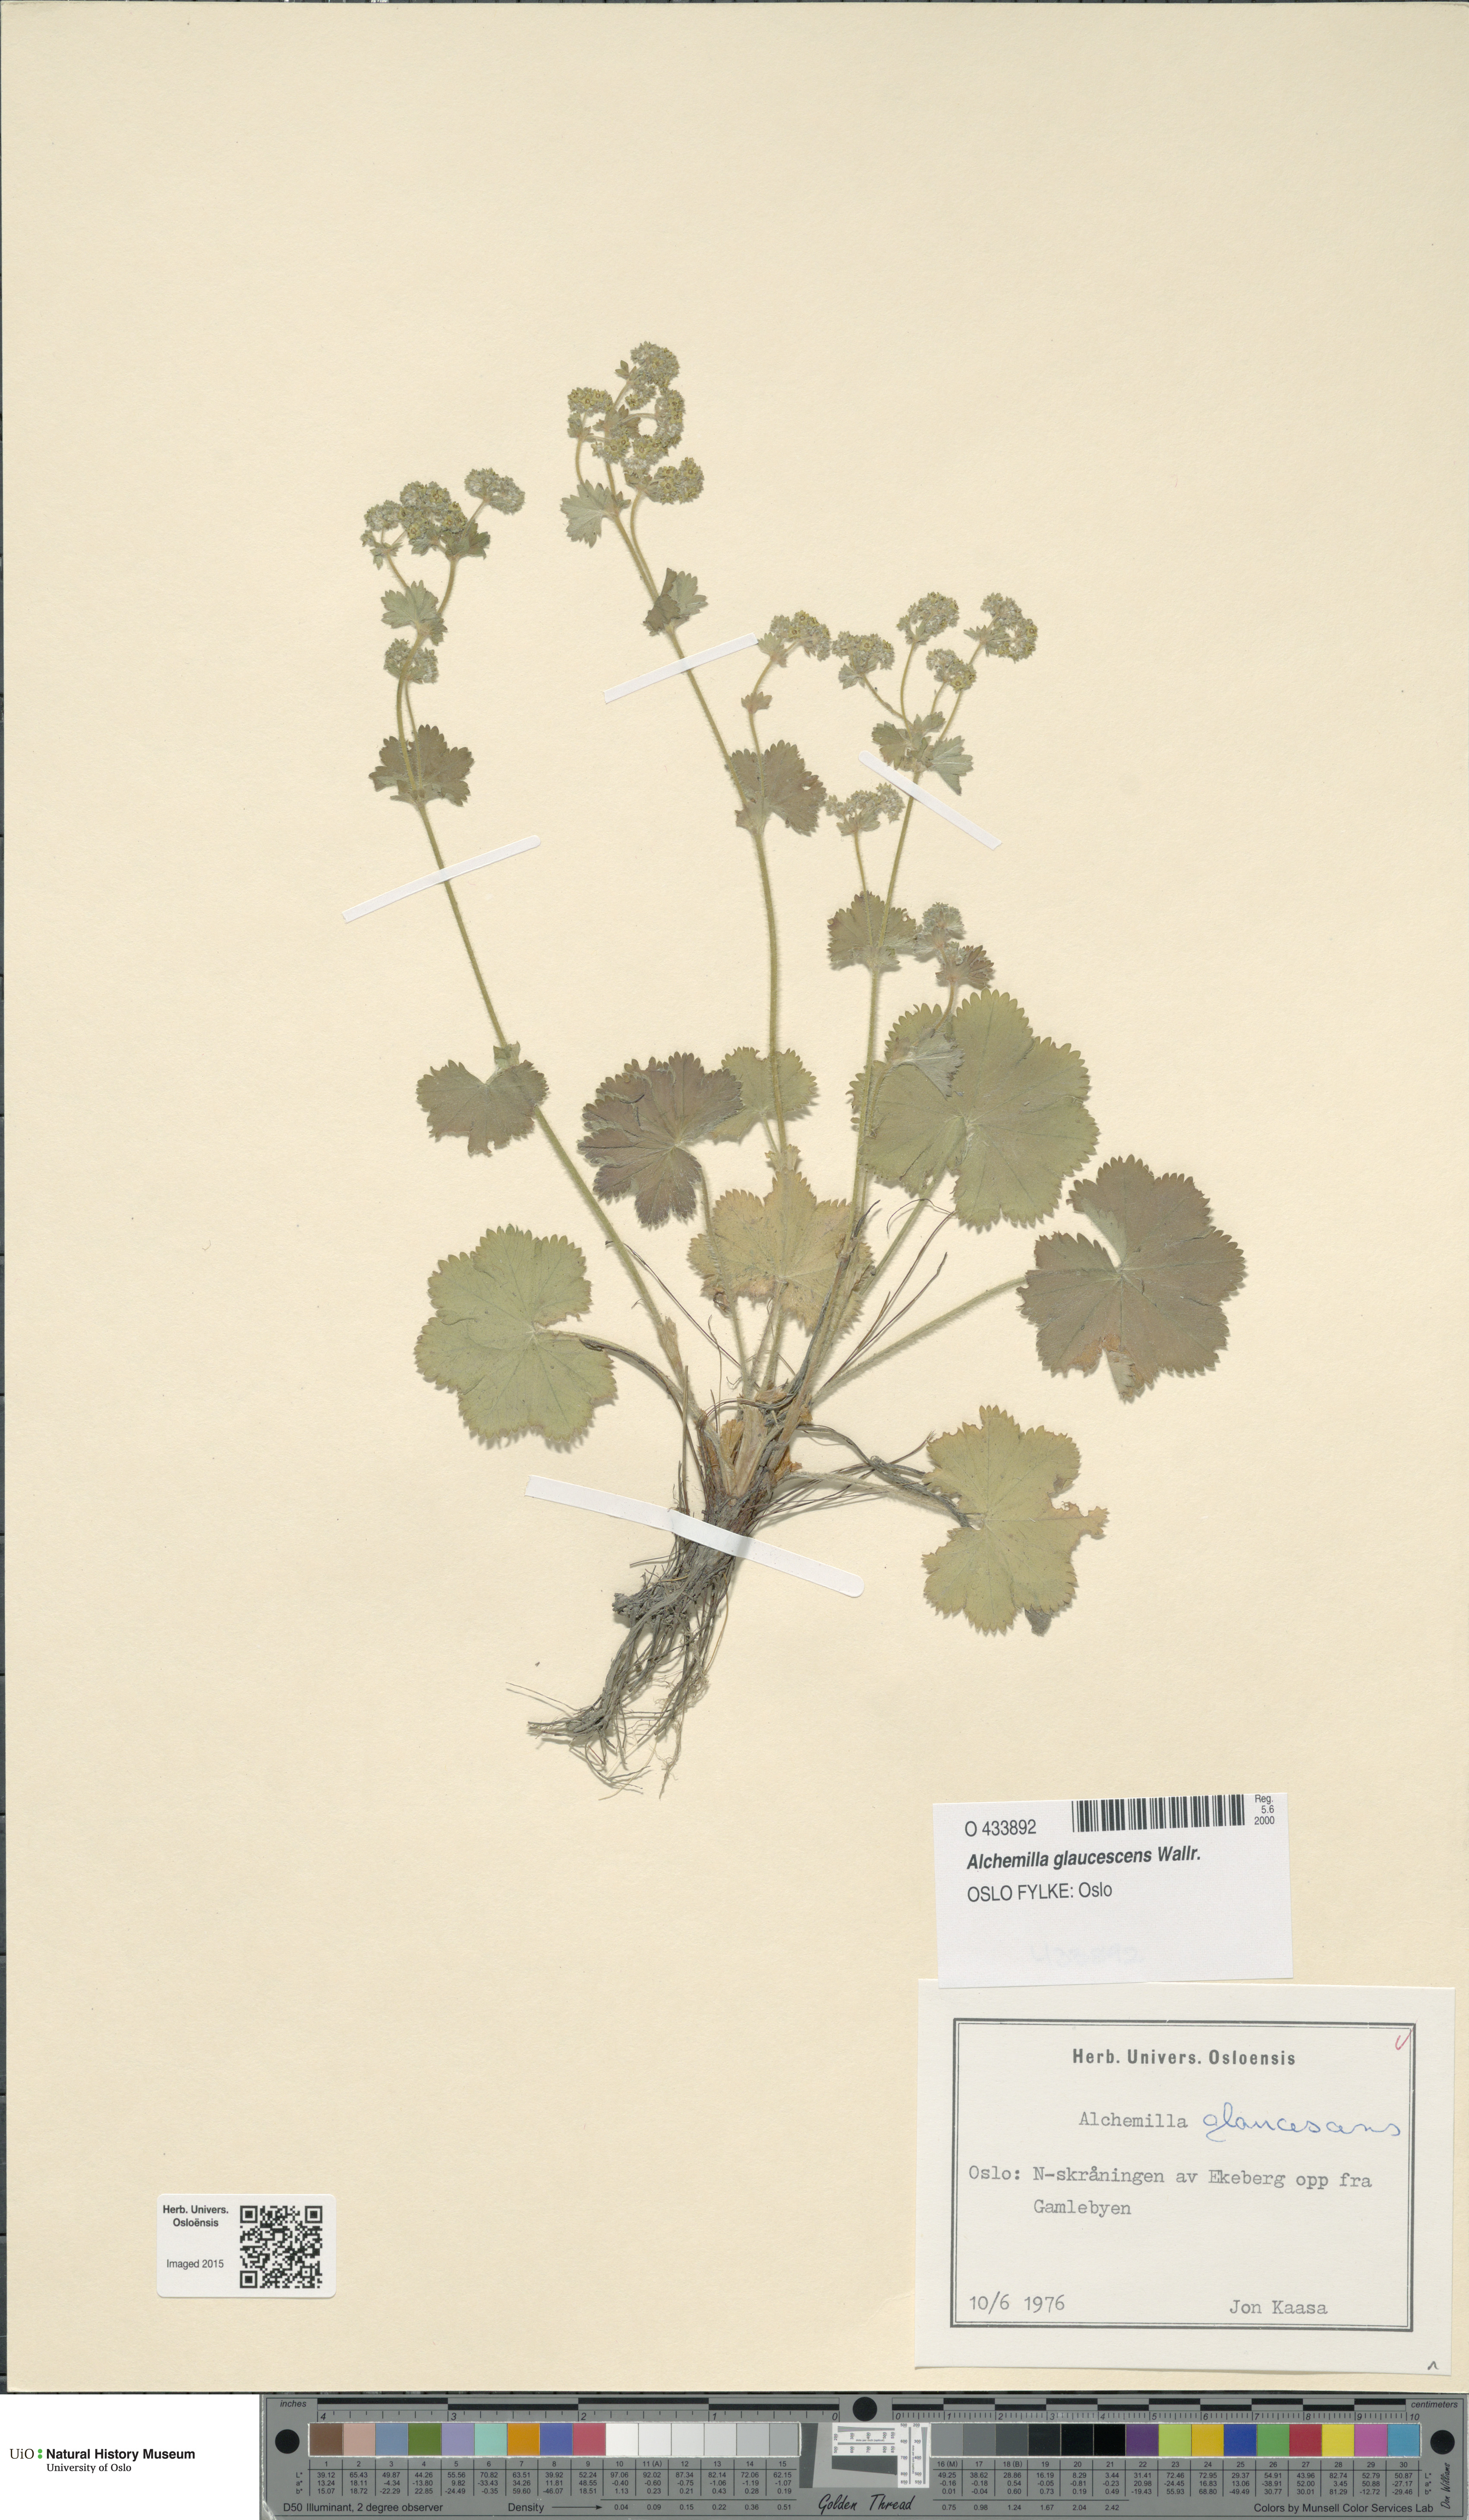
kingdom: Plantae
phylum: Tracheophyta
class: Magnoliopsida
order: Rosales
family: Rosaceae
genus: Alchemilla
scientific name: Alchemilla glaucescens
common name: Silky lady's mantle
